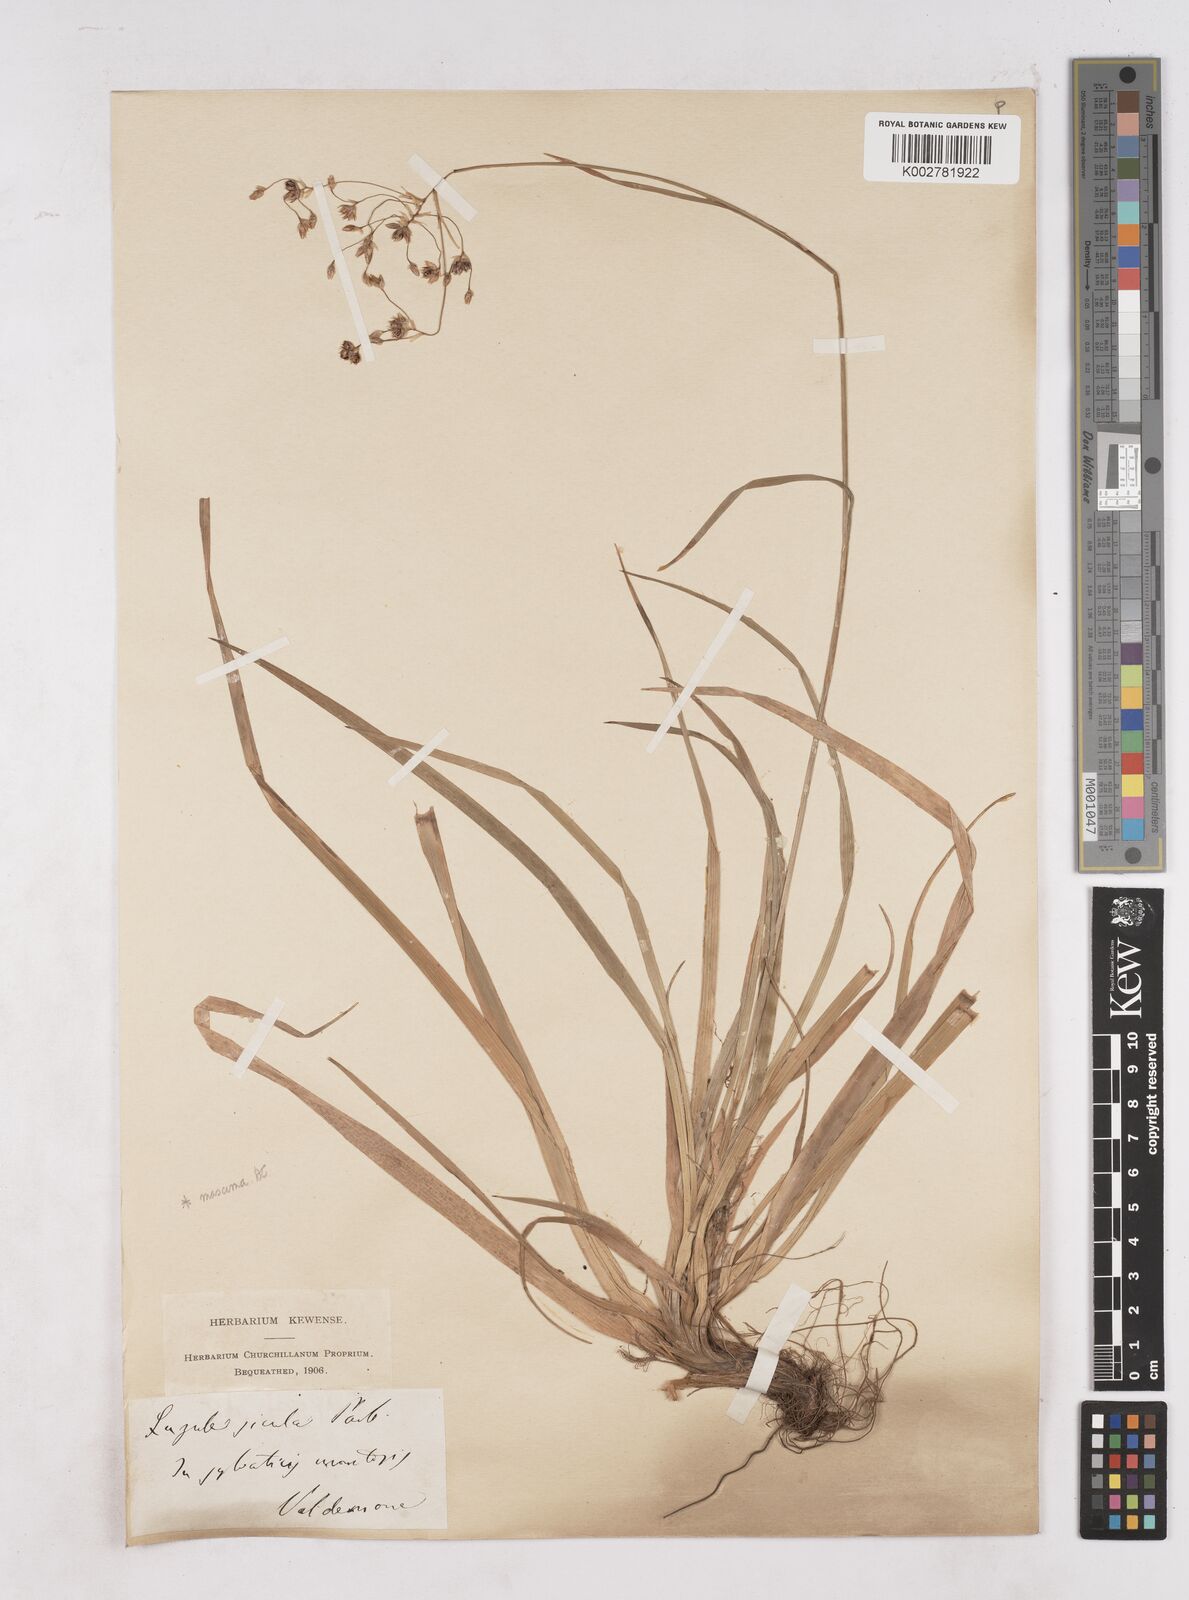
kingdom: Plantae
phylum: Tracheophyta
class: Liliopsida
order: Poales
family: Juncaceae
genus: Luzula
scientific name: Luzula sylvatica
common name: Great wood-rush
